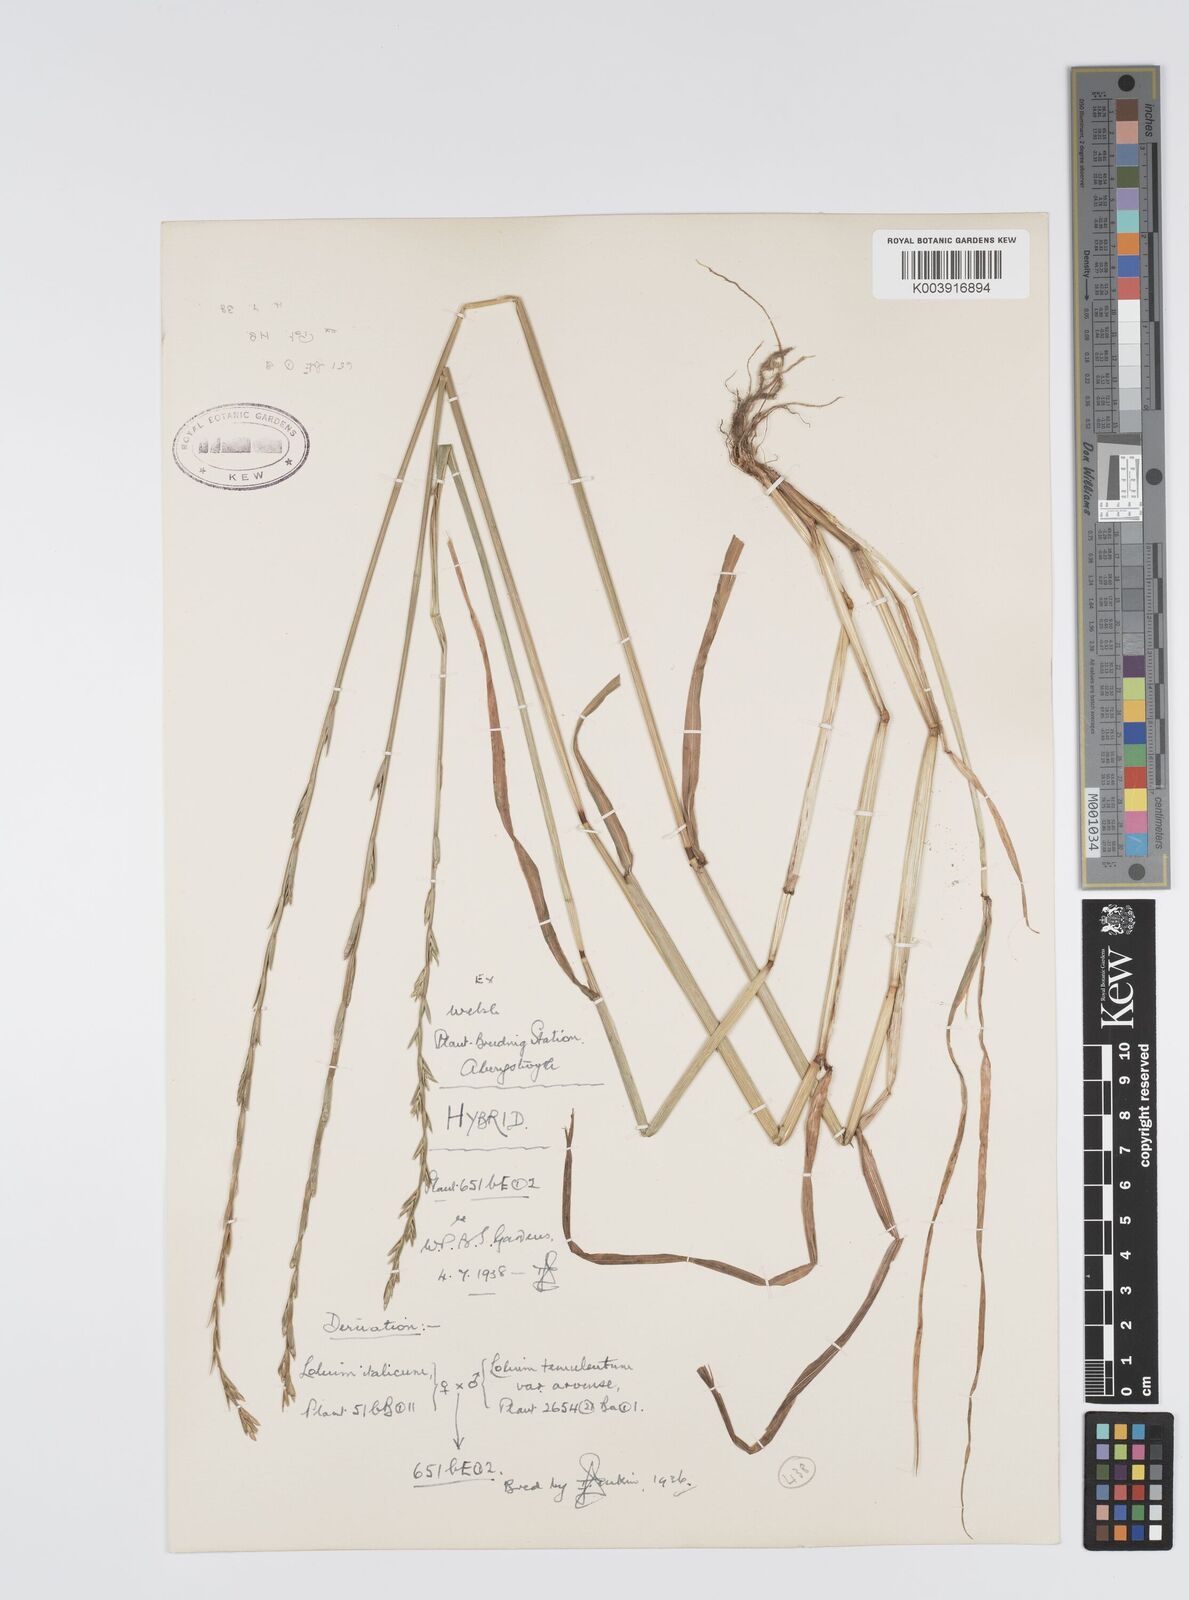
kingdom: Plantae
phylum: Tracheophyta
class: Liliopsida
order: Poales
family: Poaceae
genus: Lolium
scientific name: Lolium multiflorum
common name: Annual ryegrass
